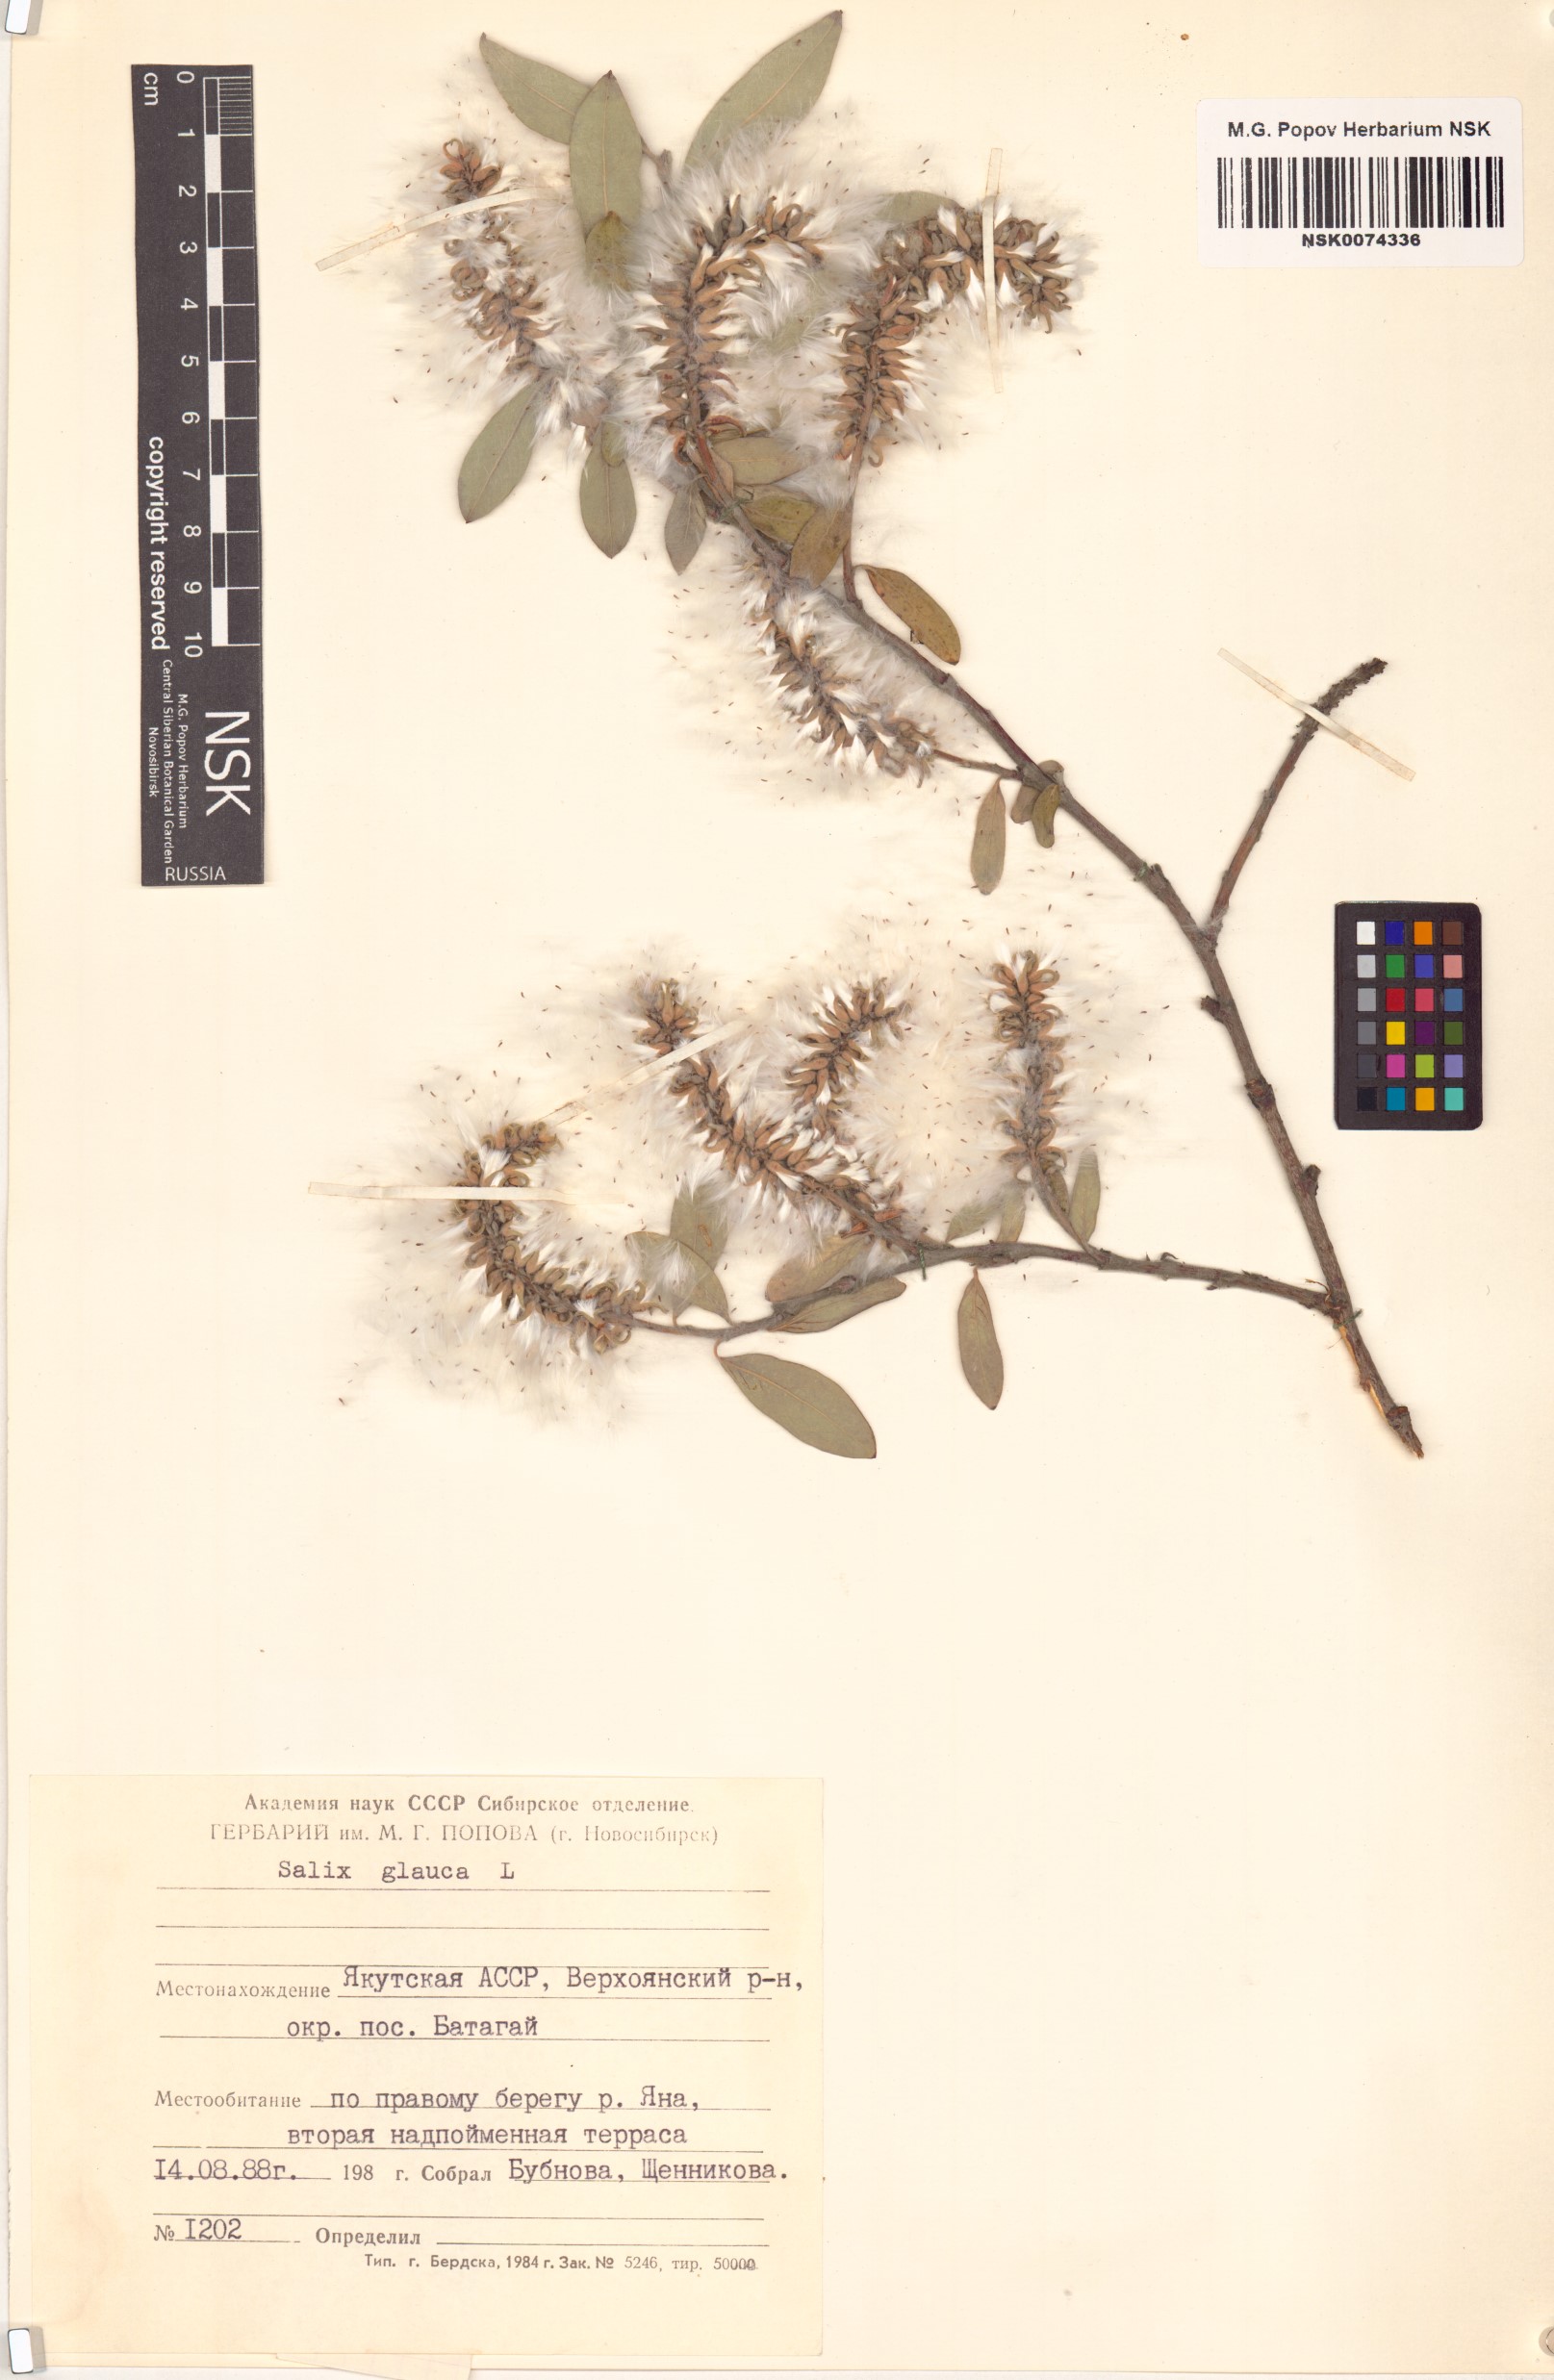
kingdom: Plantae
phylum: Tracheophyta
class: Magnoliopsida
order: Malpighiales
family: Salicaceae
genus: Salix
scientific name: Salix glauca
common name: Glaucous willow
